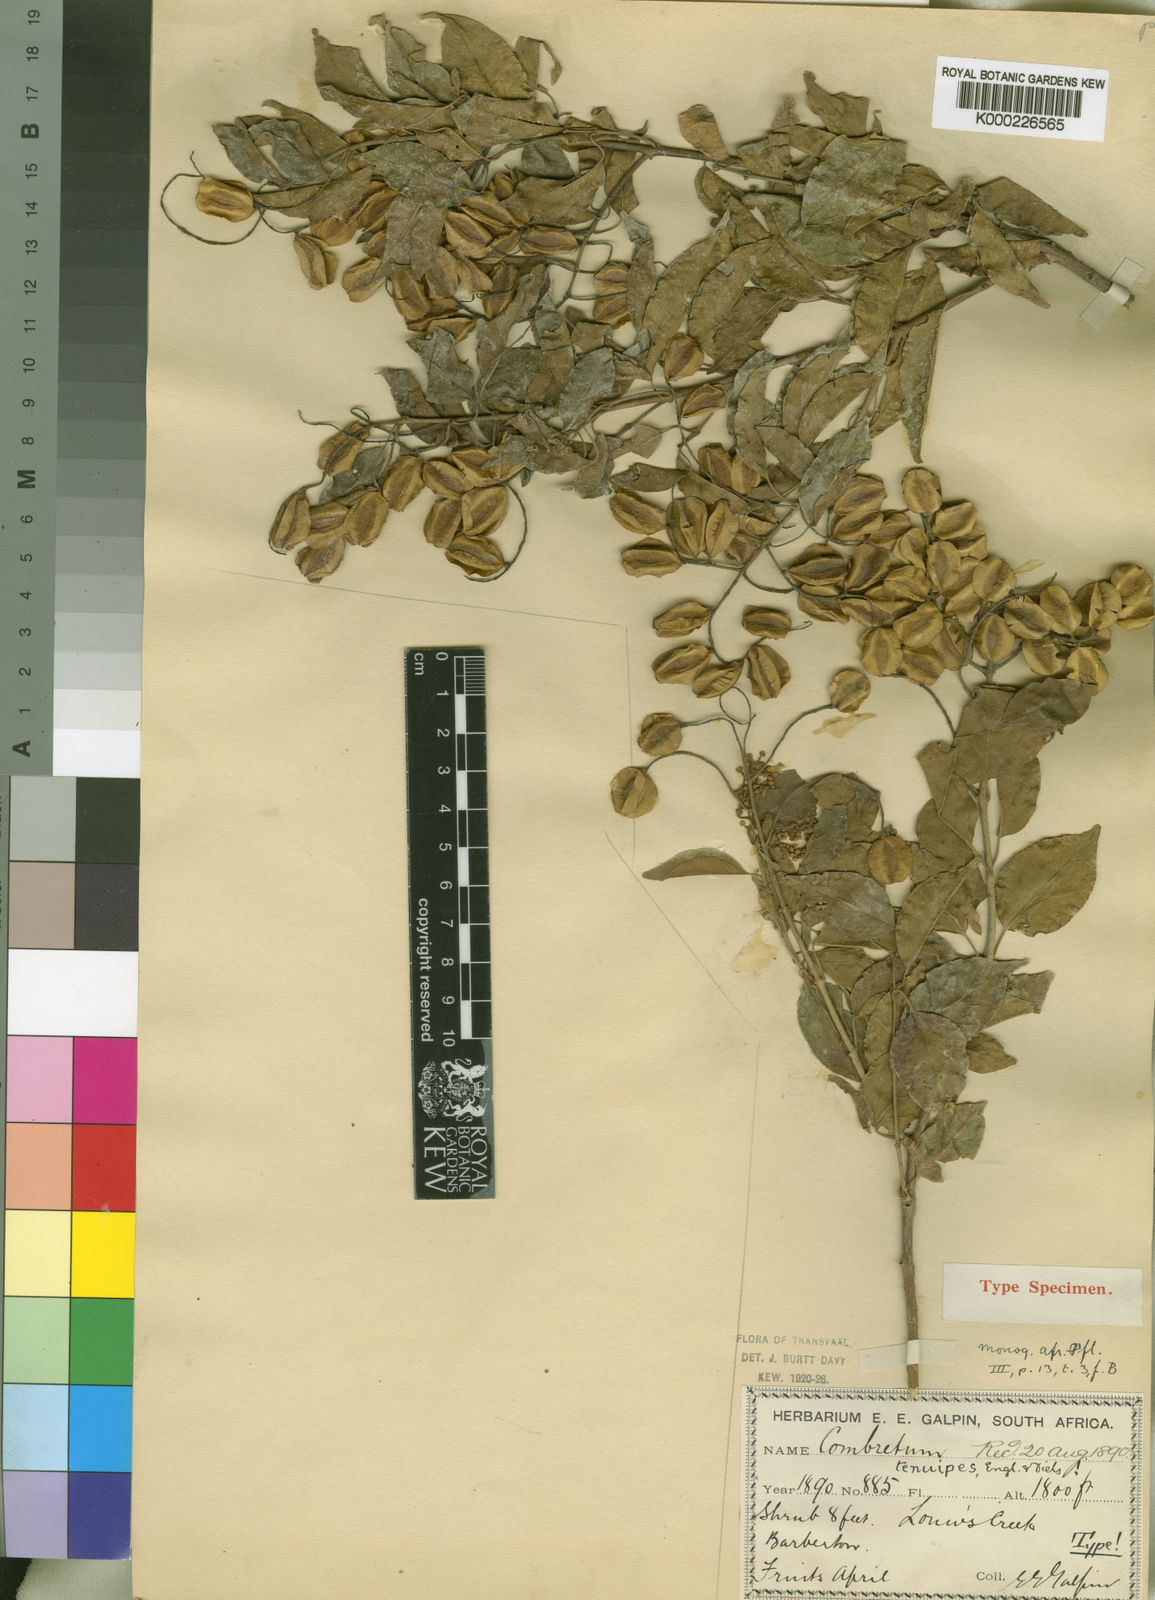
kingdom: Plantae
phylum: Tracheophyta
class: Magnoliopsida
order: Myrtales
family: Combretaceae
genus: Combretum
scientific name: Combretum padoides
